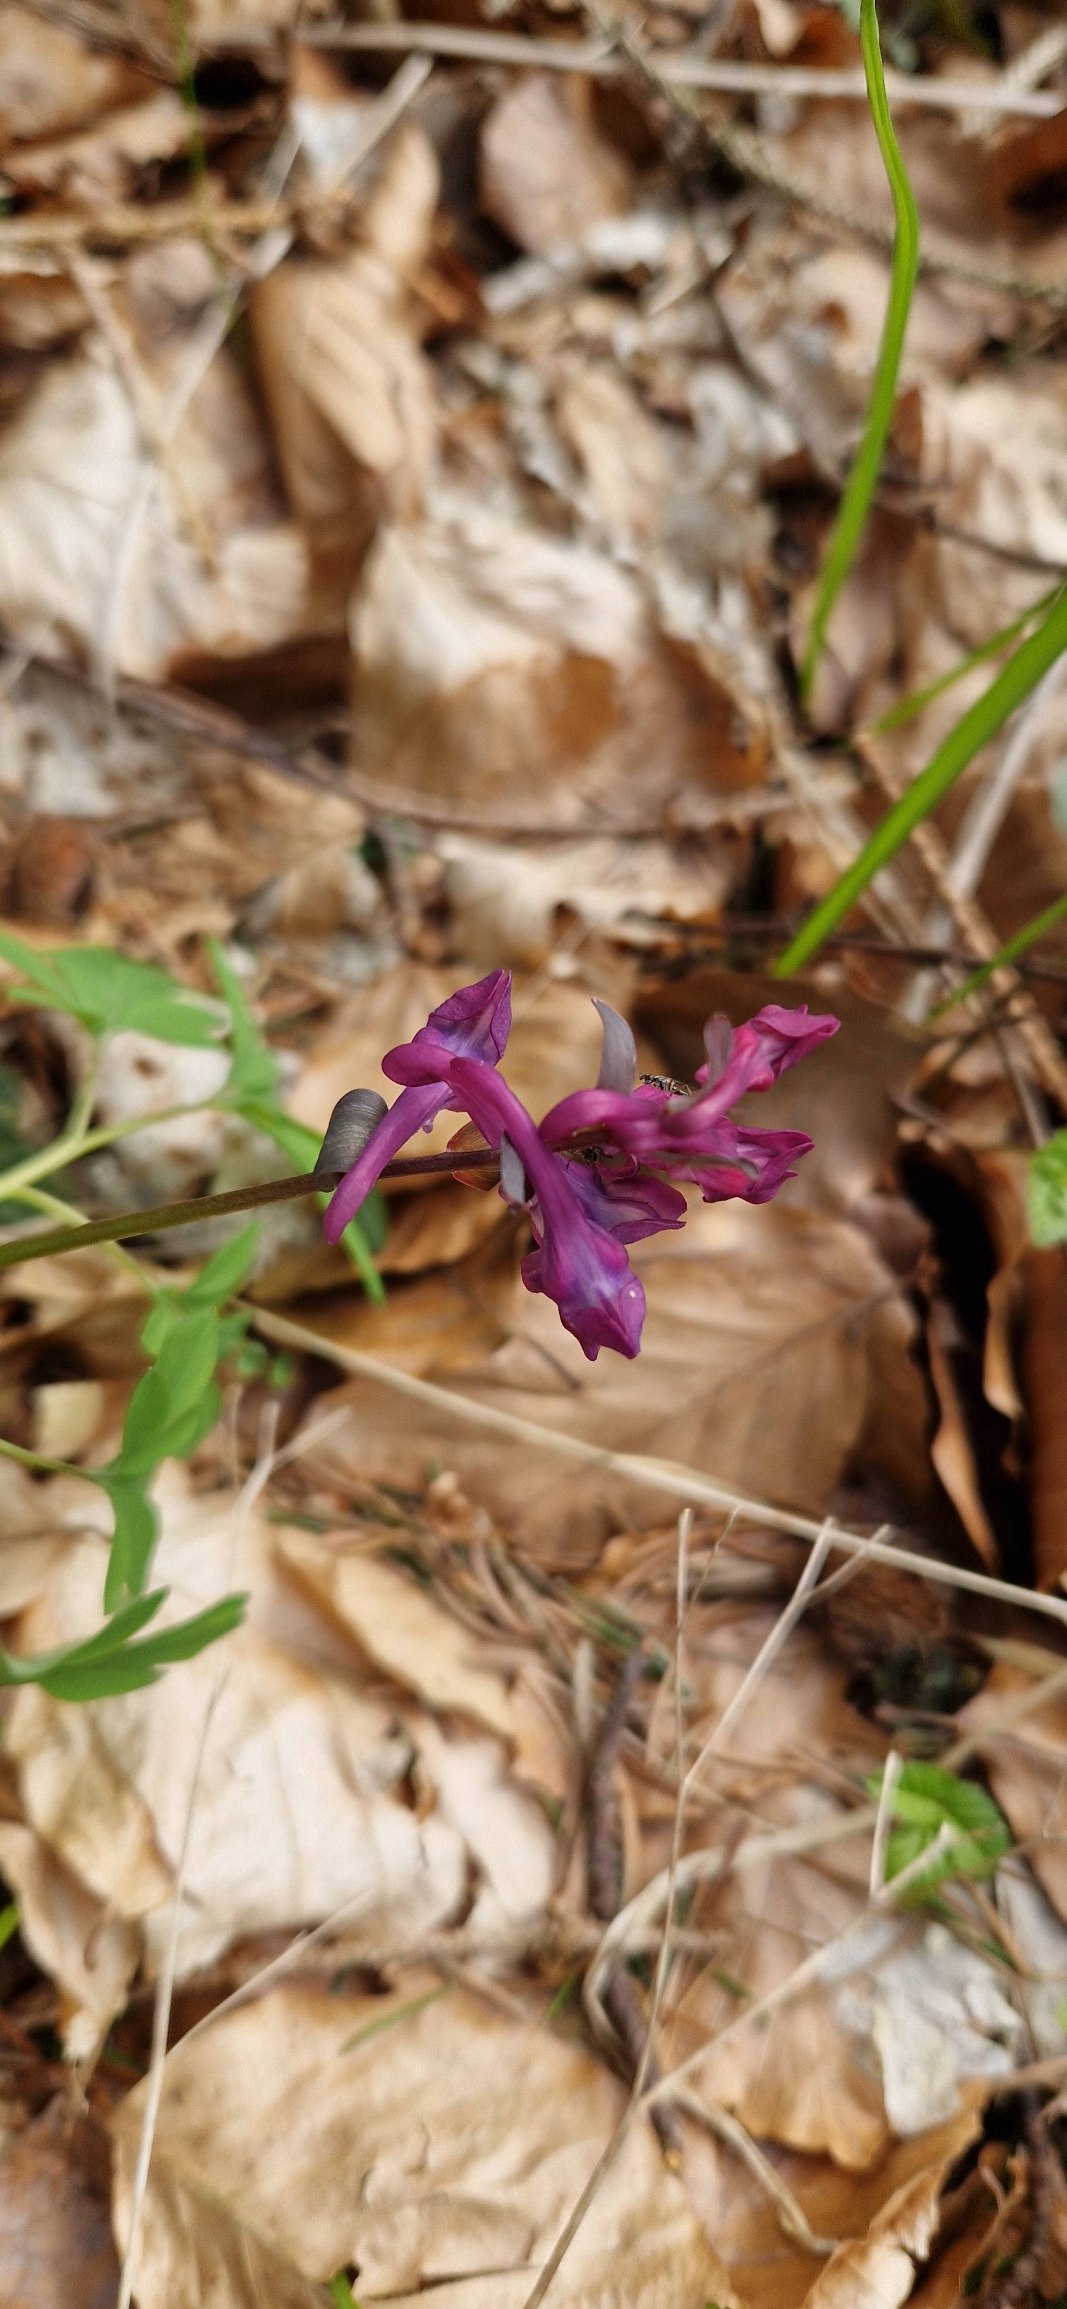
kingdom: Plantae
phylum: Tracheophyta
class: Magnoliopsida
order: Ranunculales
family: Papaveraceae
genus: Corydalis
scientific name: Corydalis cava
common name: Hulrodet lærkespore
